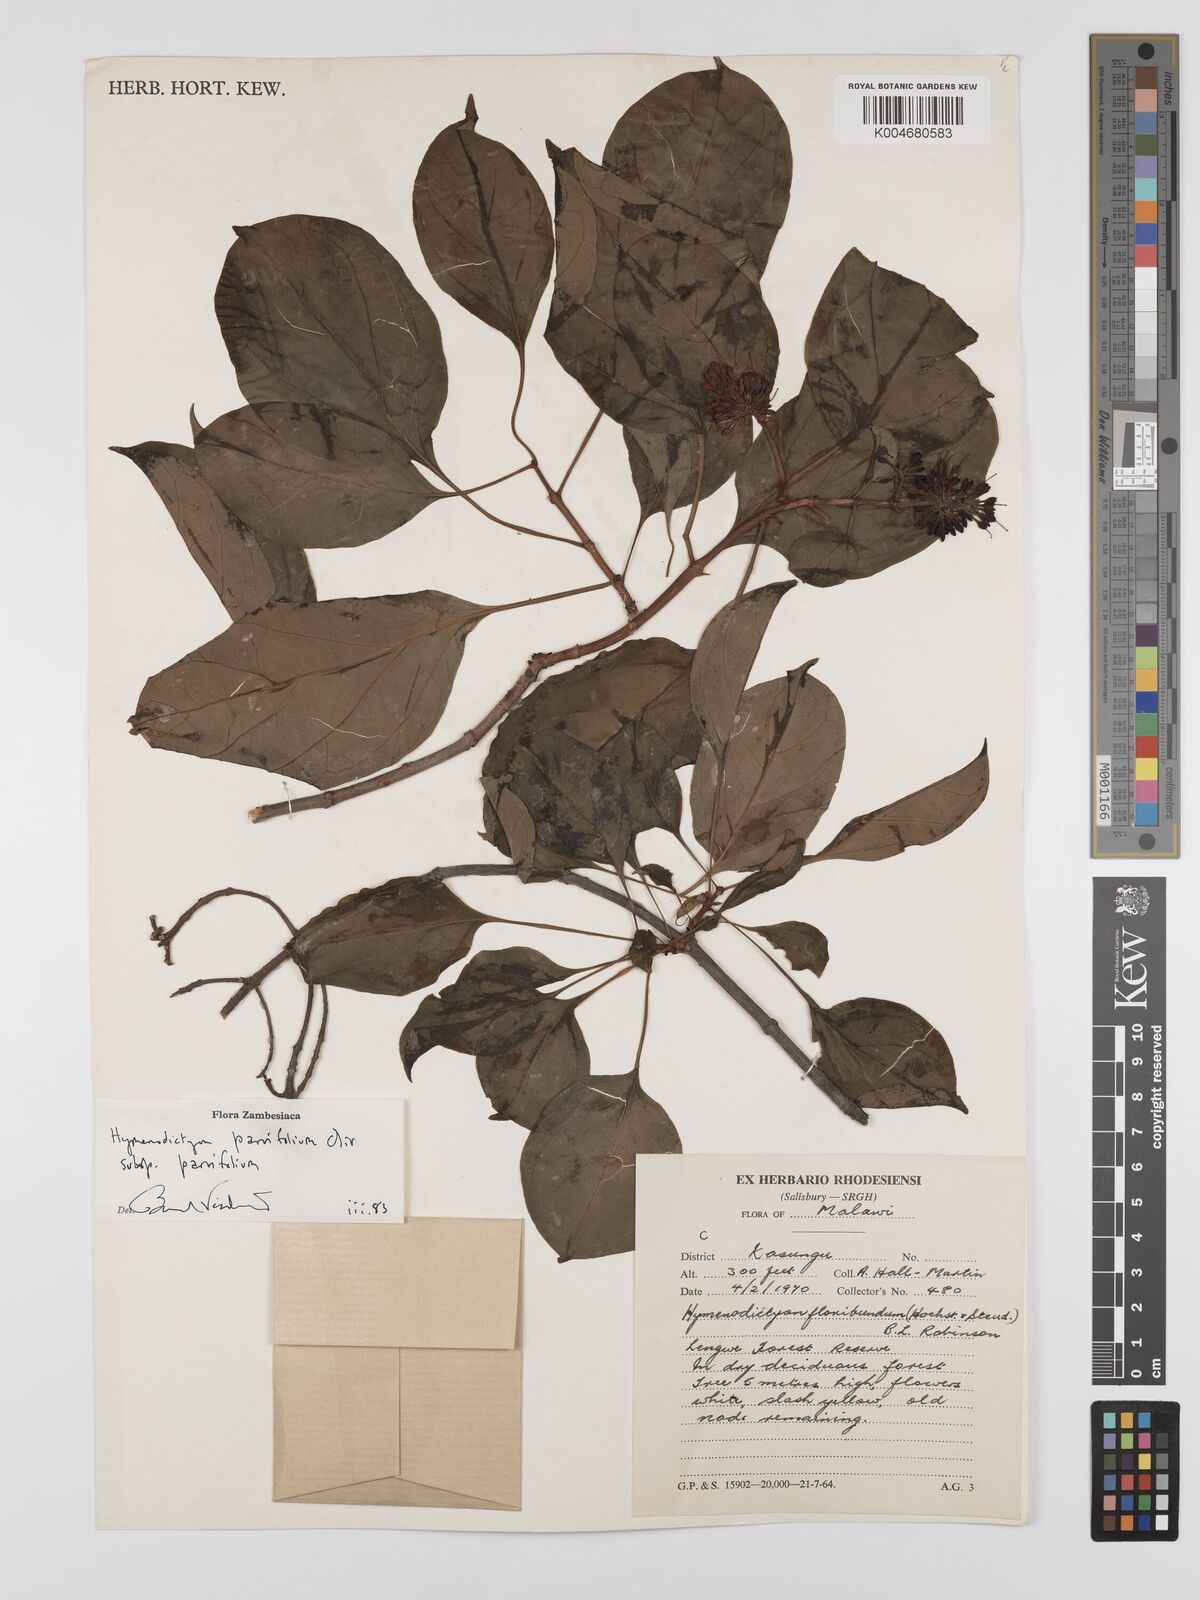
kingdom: Plantae
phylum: Tracheophyta
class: Magnoliopsida
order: Gentianales
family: Rubiaceae
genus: Hymenodictyon
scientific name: Hymenodictyon parvifolium
